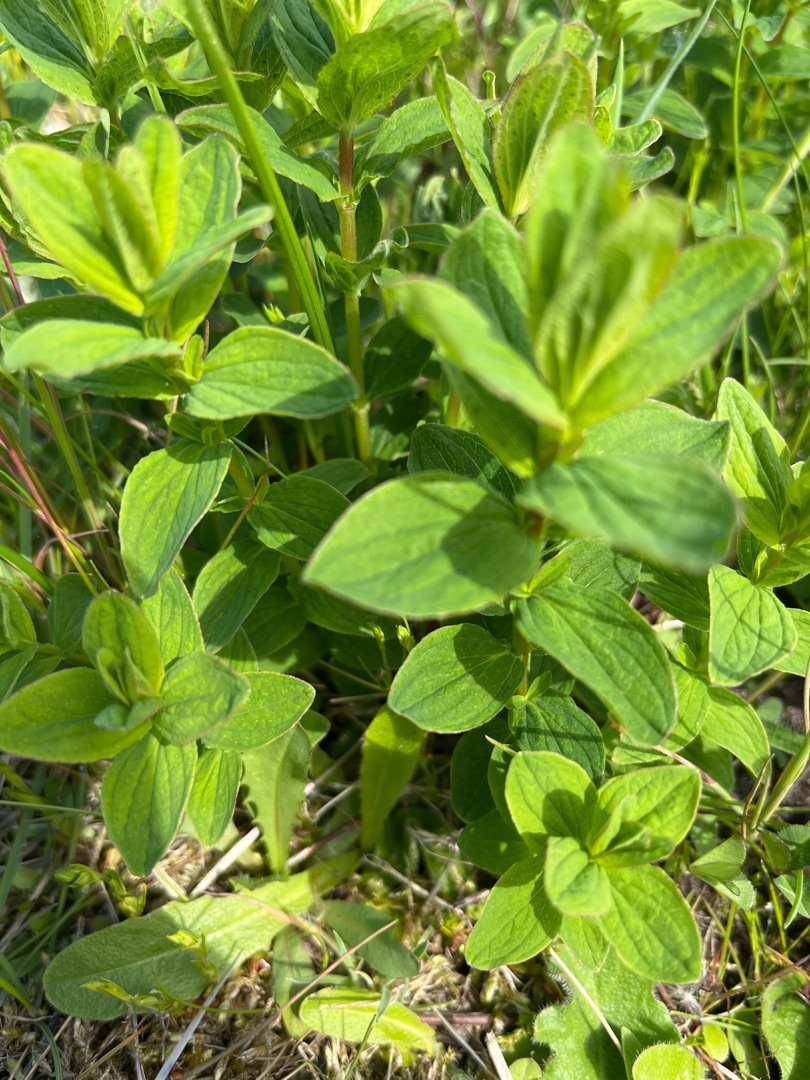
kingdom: Plantae
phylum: Tracheophyta
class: Magnoliopsida
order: Malpighiales
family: Hypericaceae
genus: Hypericum
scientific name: Hypericum maculatum
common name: Kantet perikon
